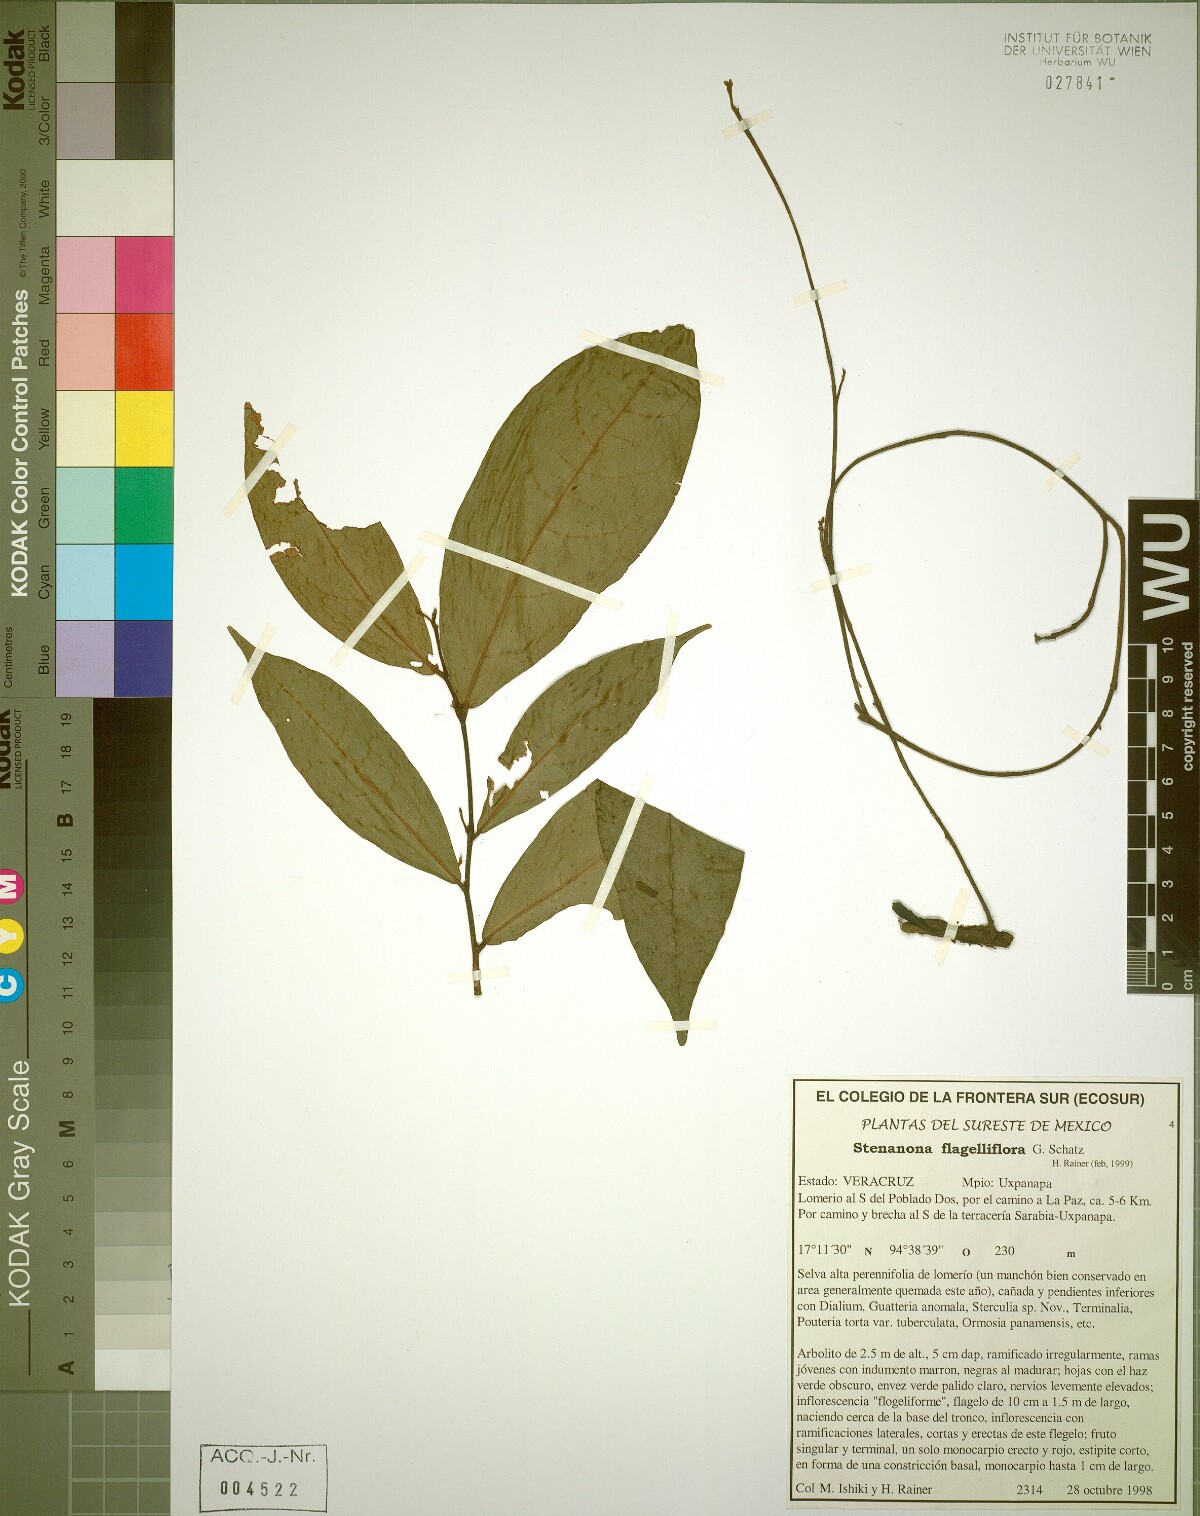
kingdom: Plantae
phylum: Tracheophyta
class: Magnoliopsida
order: Magnoliales
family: Annonaceae
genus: Stenanona
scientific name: Stenanona flagelliflora
